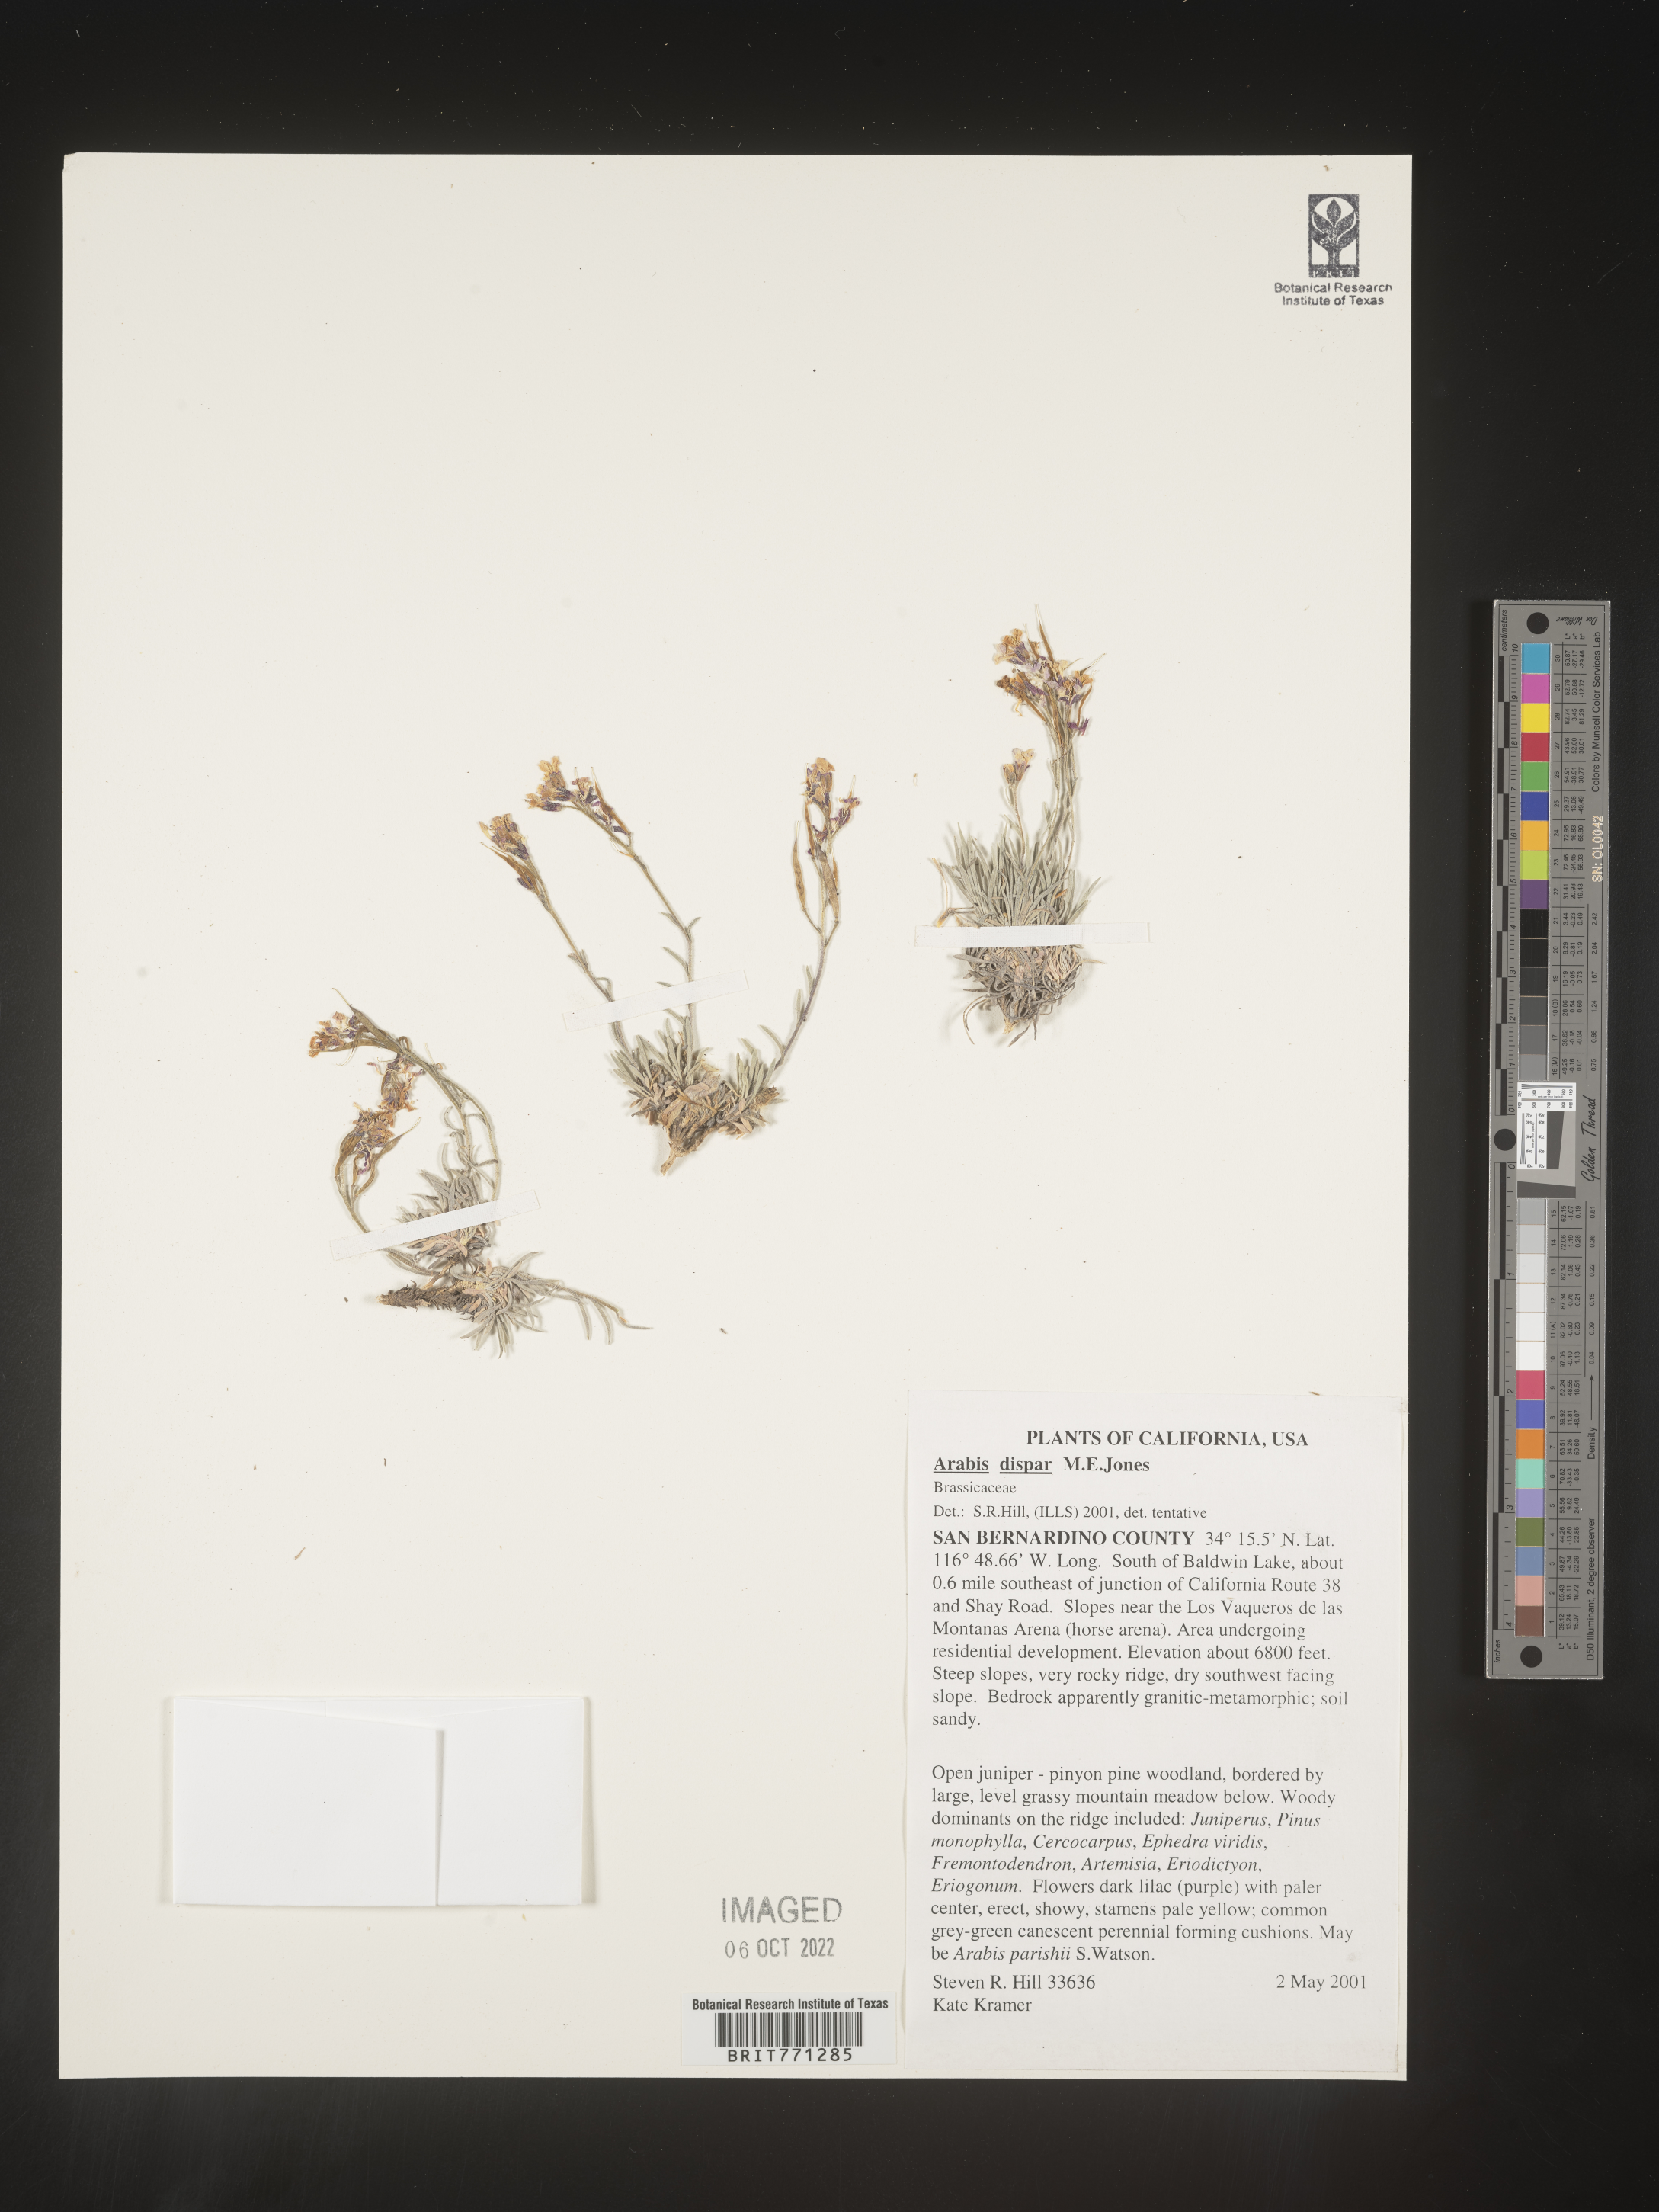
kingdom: Plantae
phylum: Tracheophyta
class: Magnoliopsida
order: Brassicales
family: Brassicaceae
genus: Arabis
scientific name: Arabis
